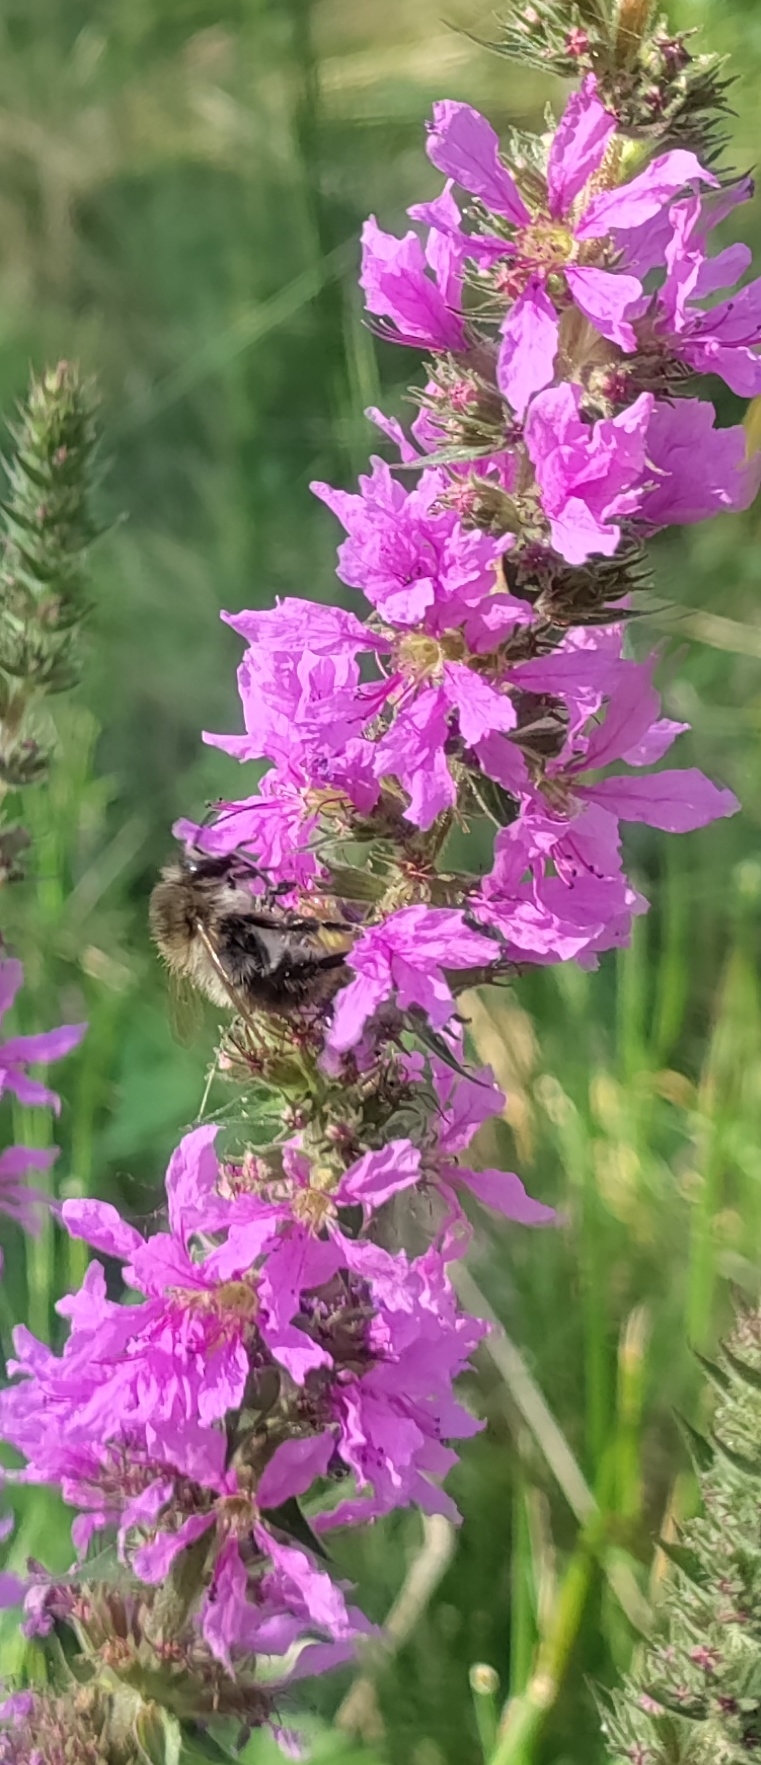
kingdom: Plantae
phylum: Tracheophyta
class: Magnoliopsida
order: Myrtales
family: Lythraceae
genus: Lythrum
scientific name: Lythrum salicaria
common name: Kattehale
